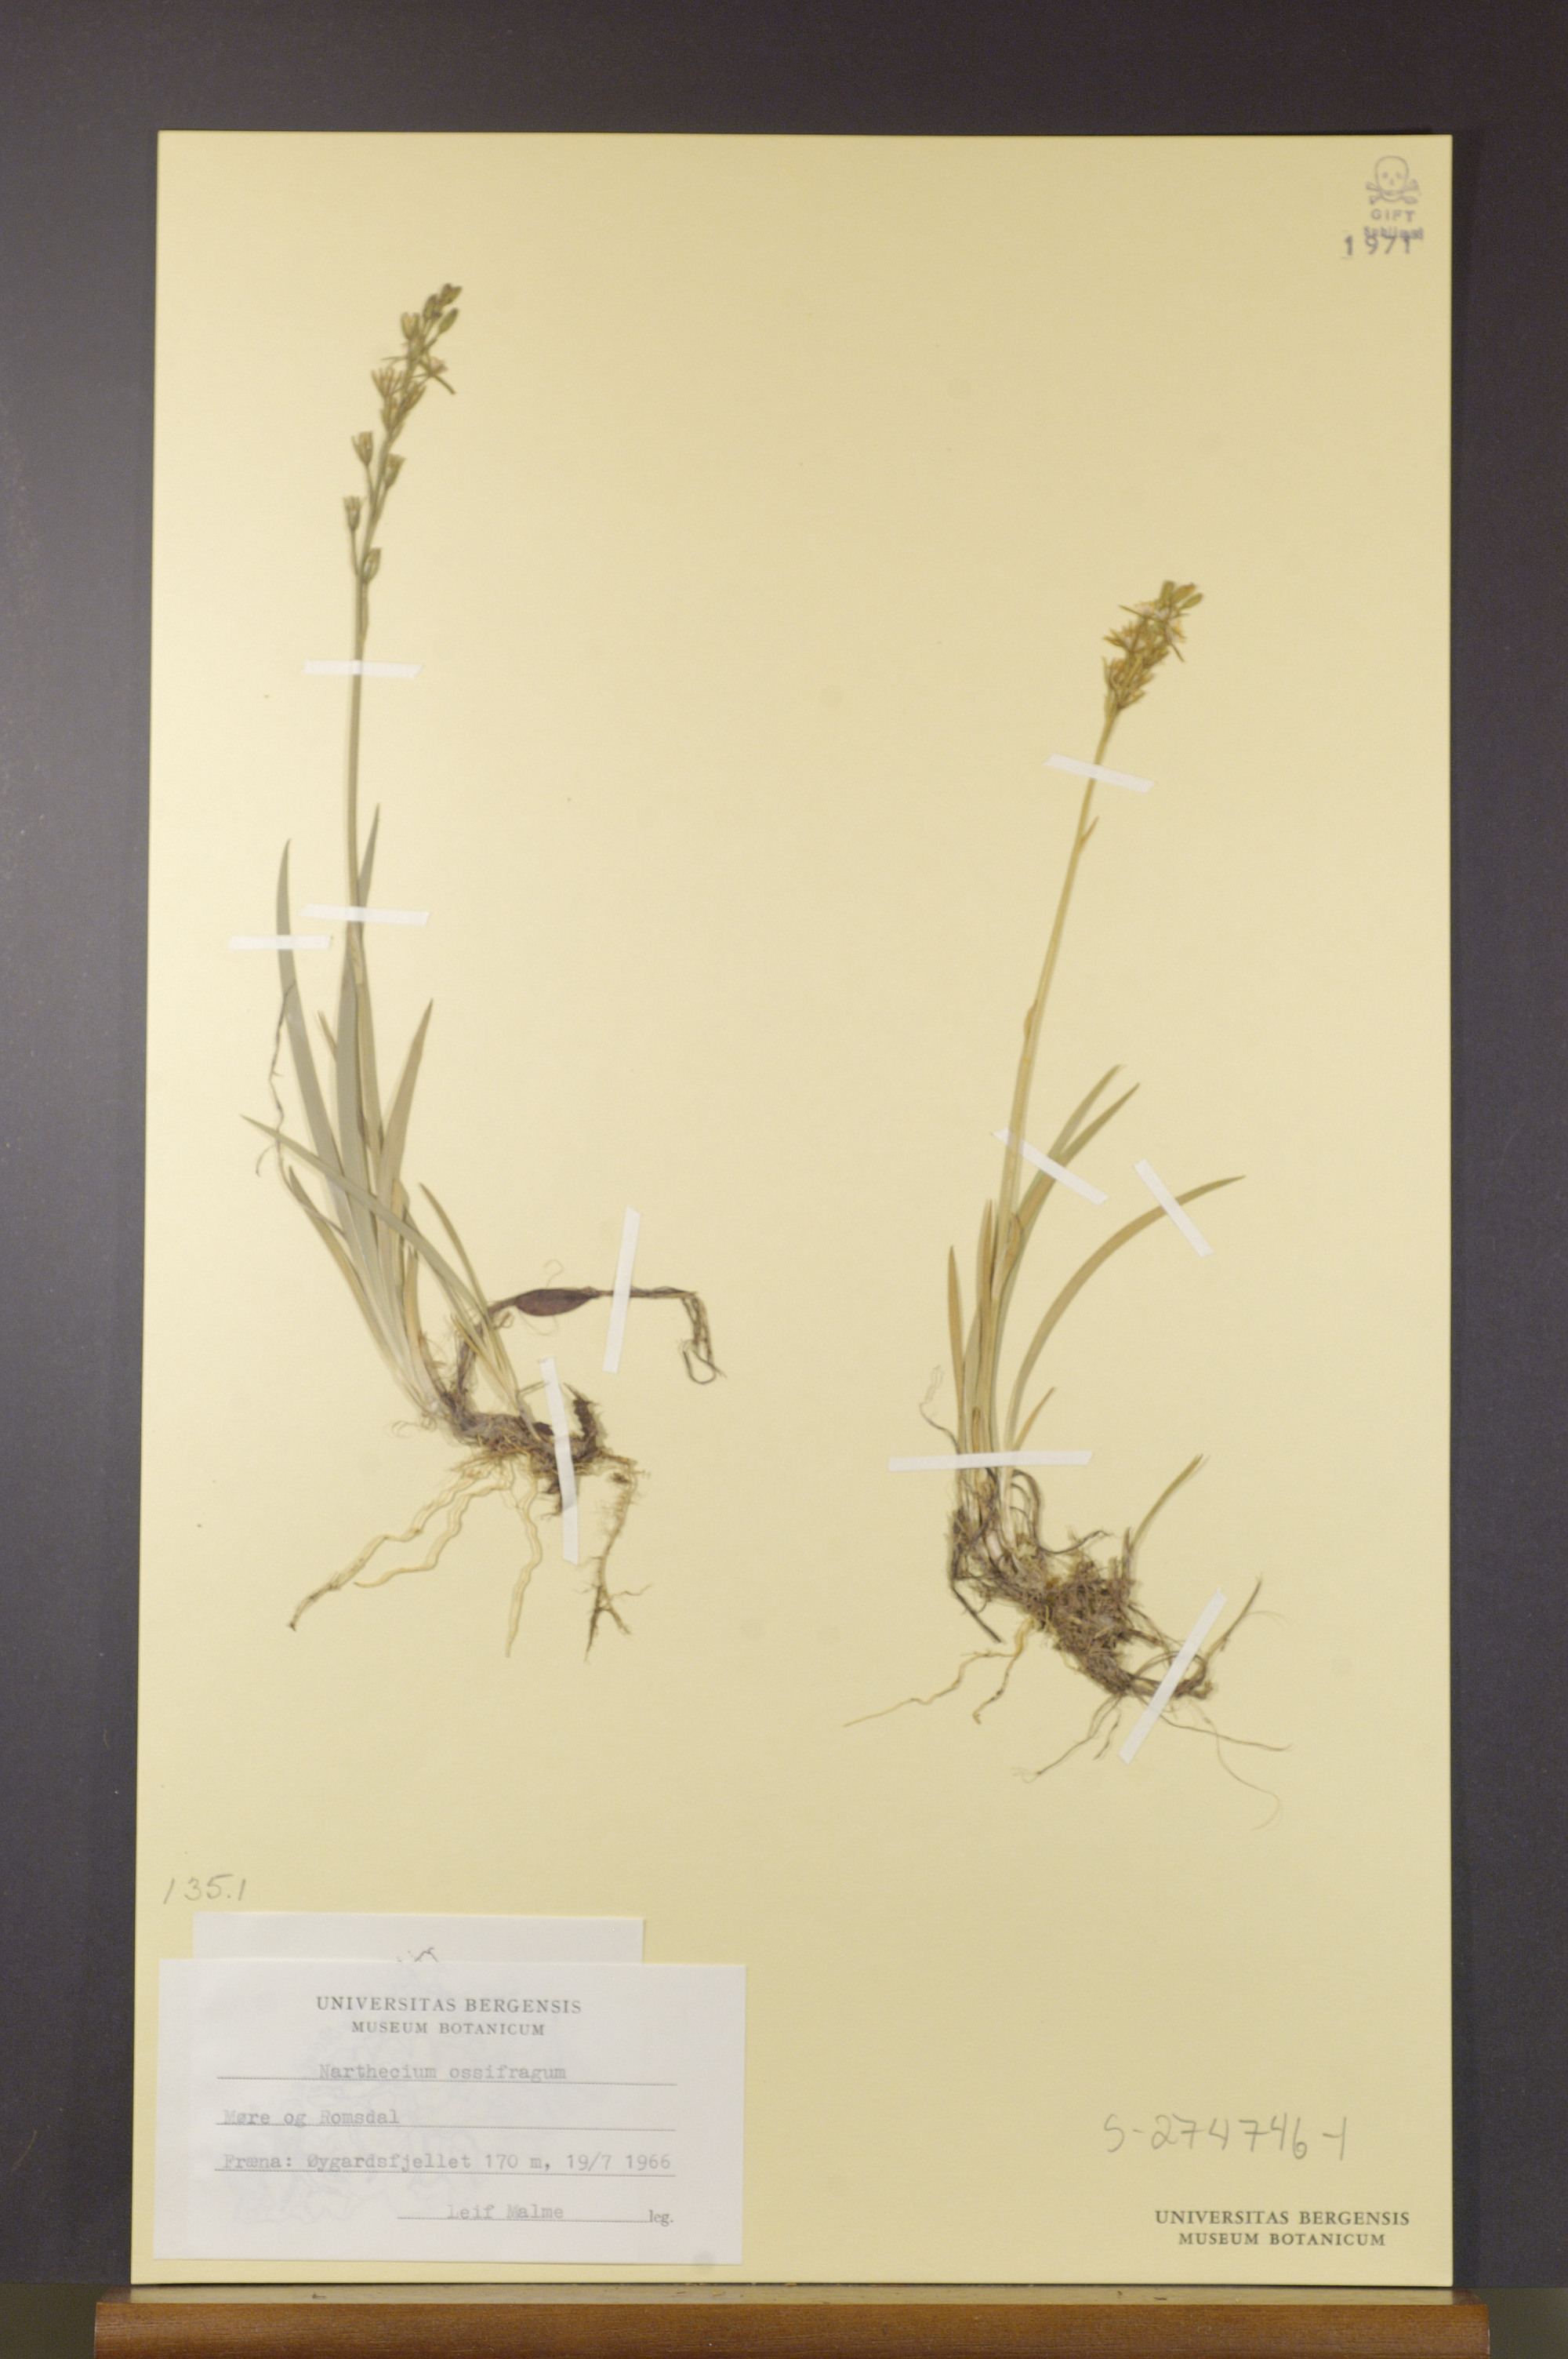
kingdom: Plantae
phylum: Tracheophyta
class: Liliopsida
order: Dioscoreales
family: Nartheciaceae
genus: Narthecium
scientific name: Narthecium ossifragum
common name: Bog asphodel
